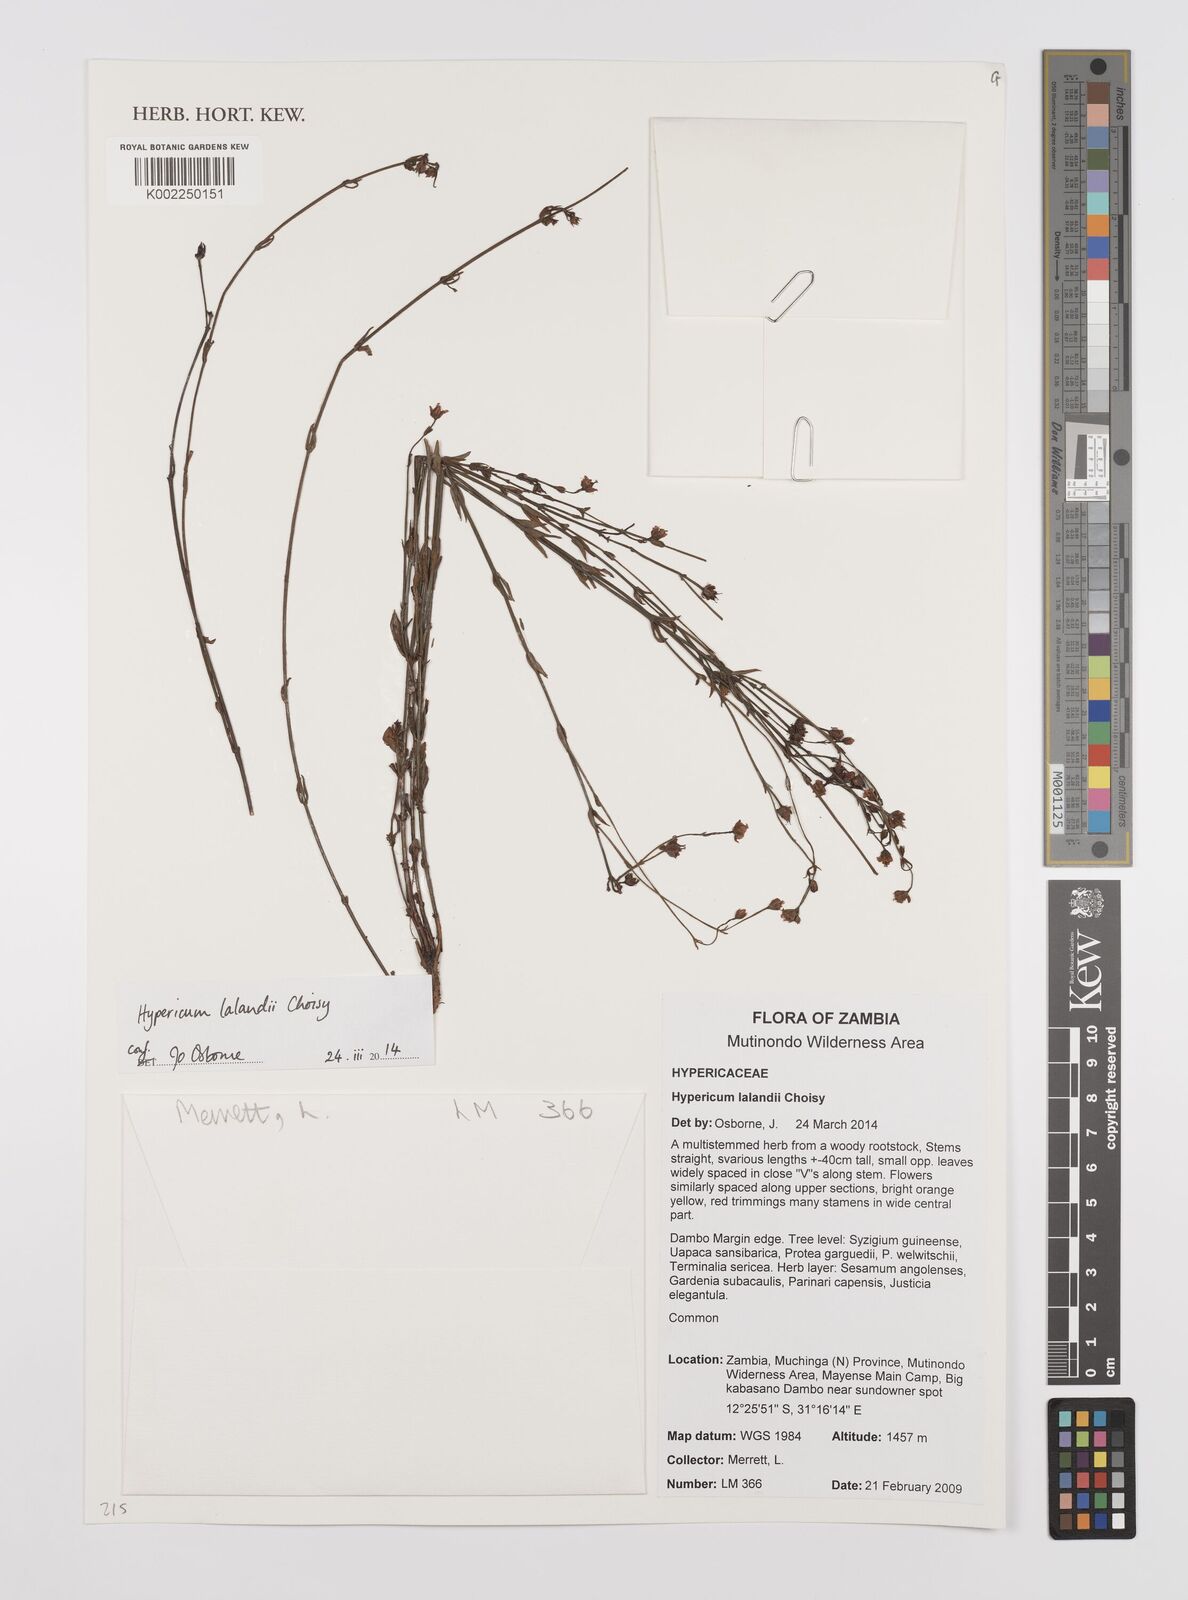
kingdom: Plantae
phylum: Tracheophyta
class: Magnoliopsida
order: Malpighiales
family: Hypericaceae
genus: Hypericum
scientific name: Hypericum lalandii
